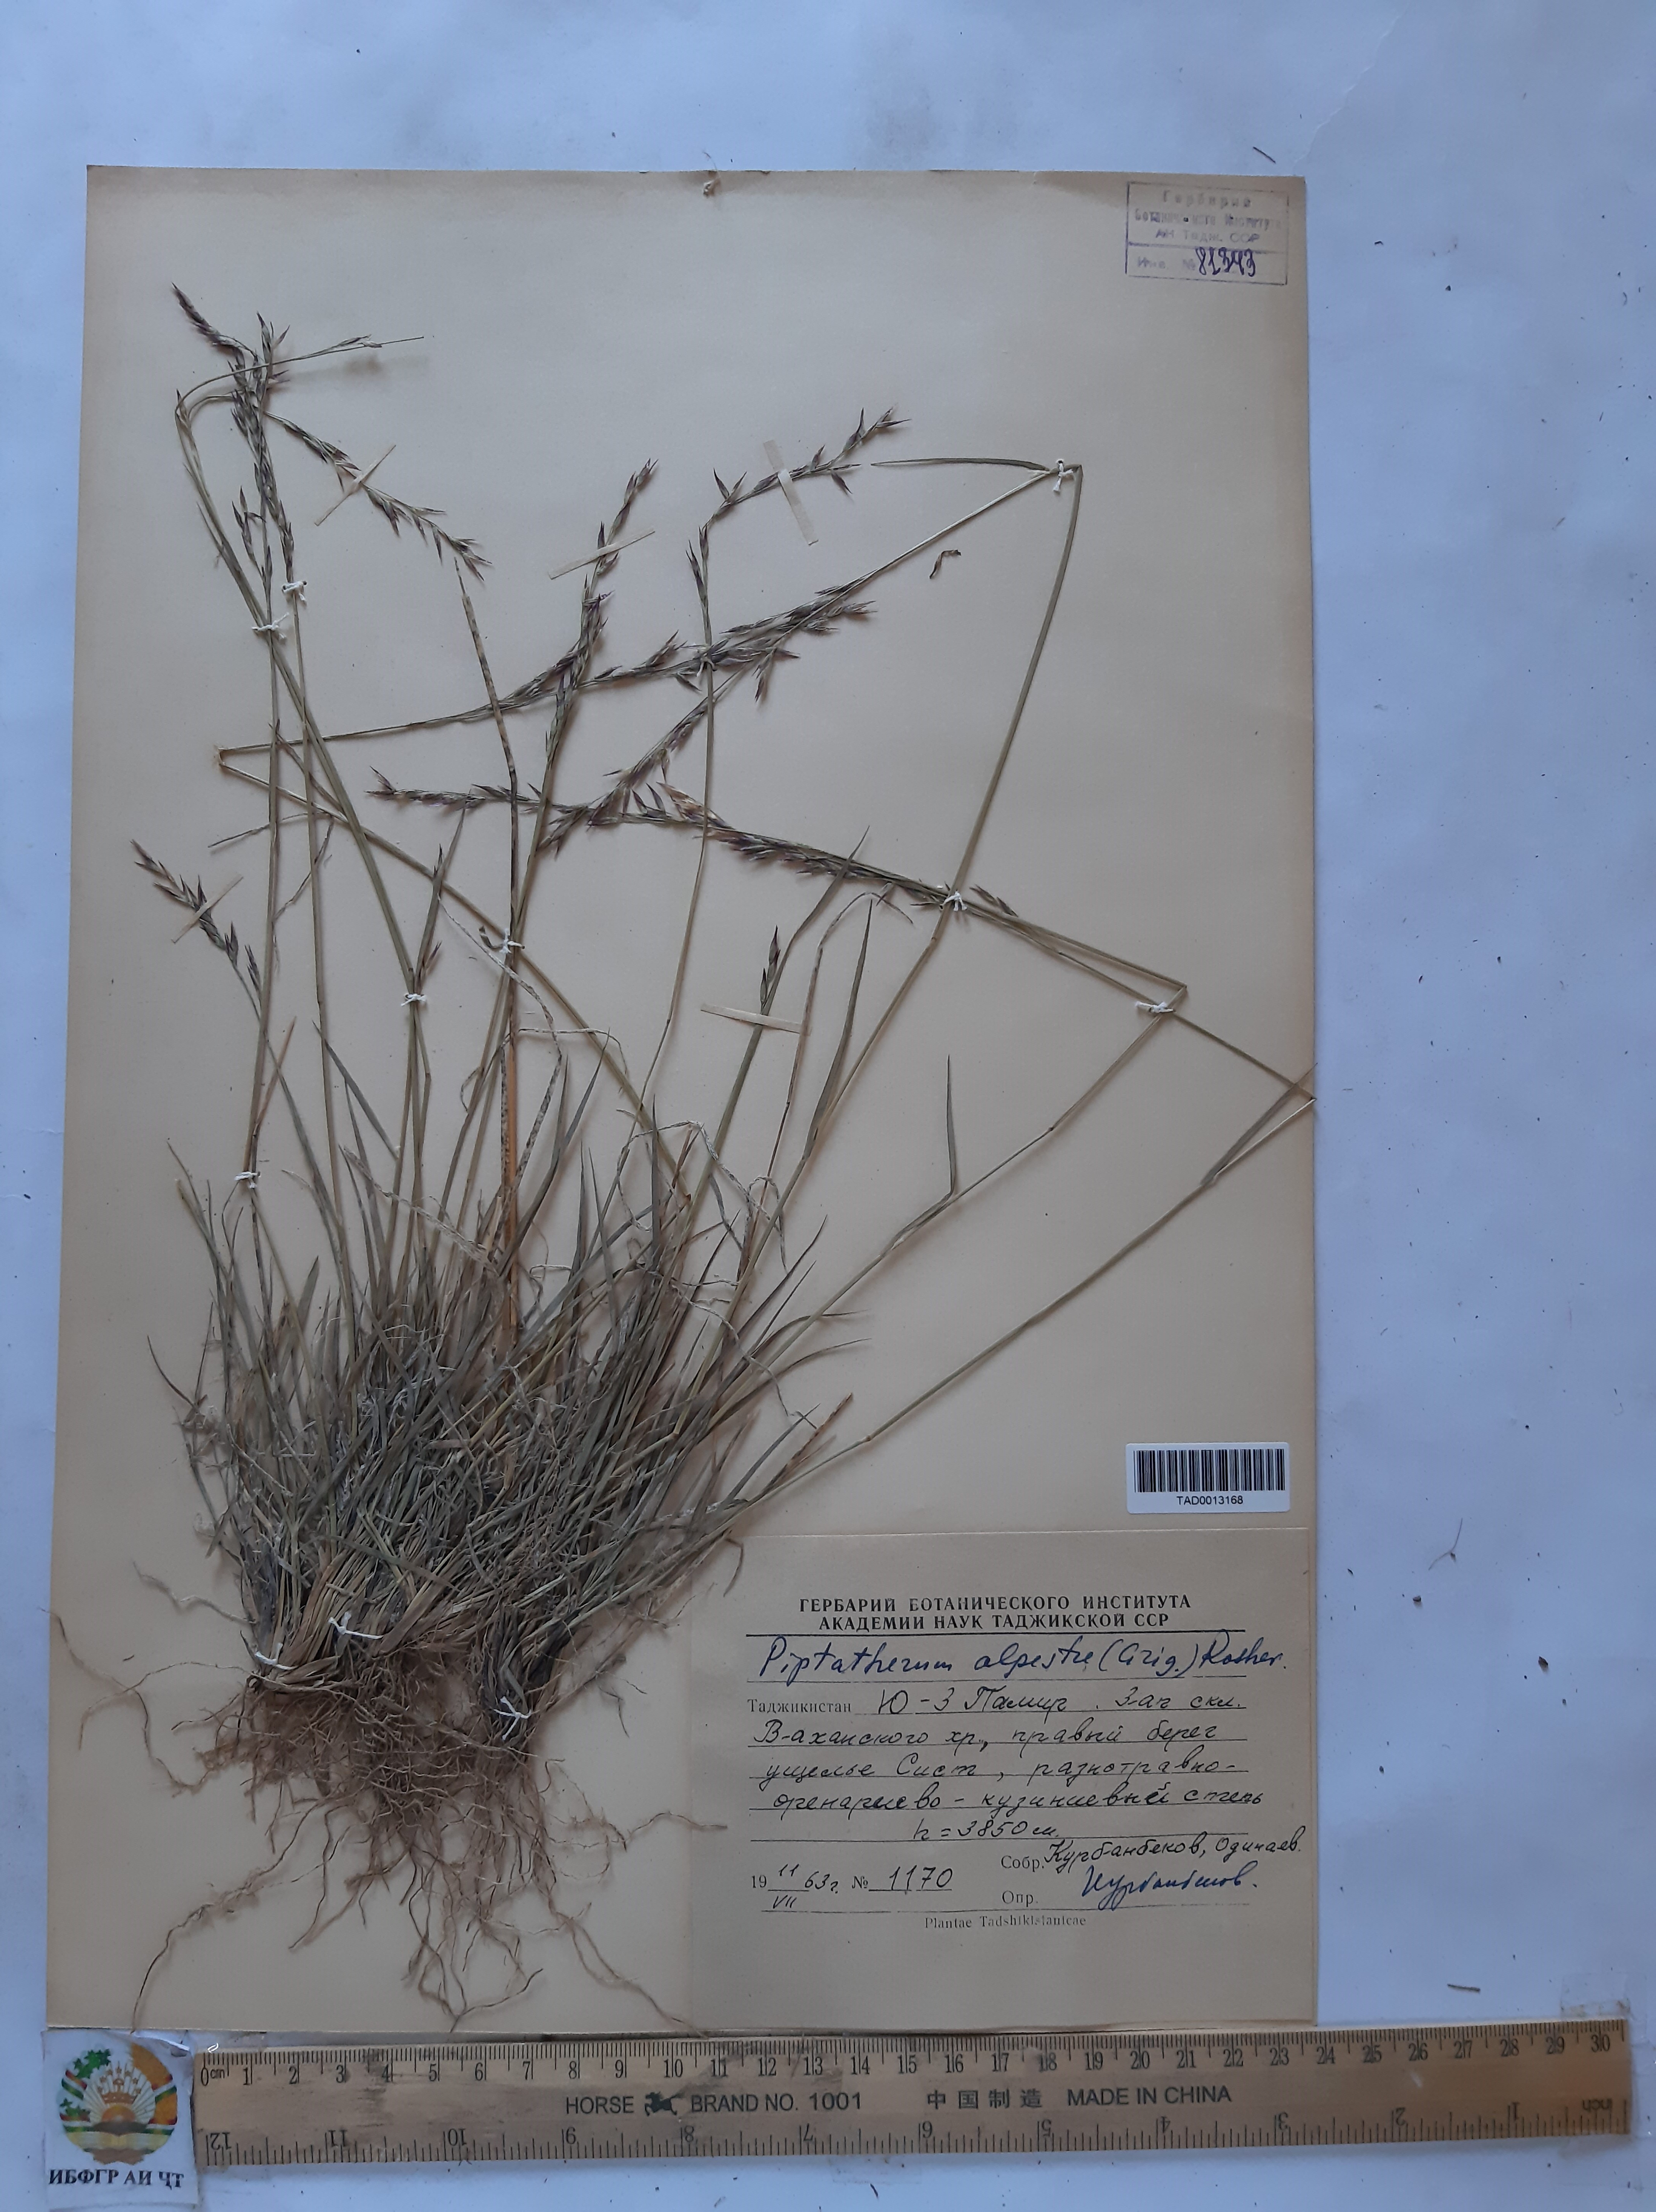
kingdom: Plantae
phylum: Tracheophyta
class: Liliopsida
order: Poales
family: Poaceae
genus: Piptatherum
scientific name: Piptatherum alpestre
